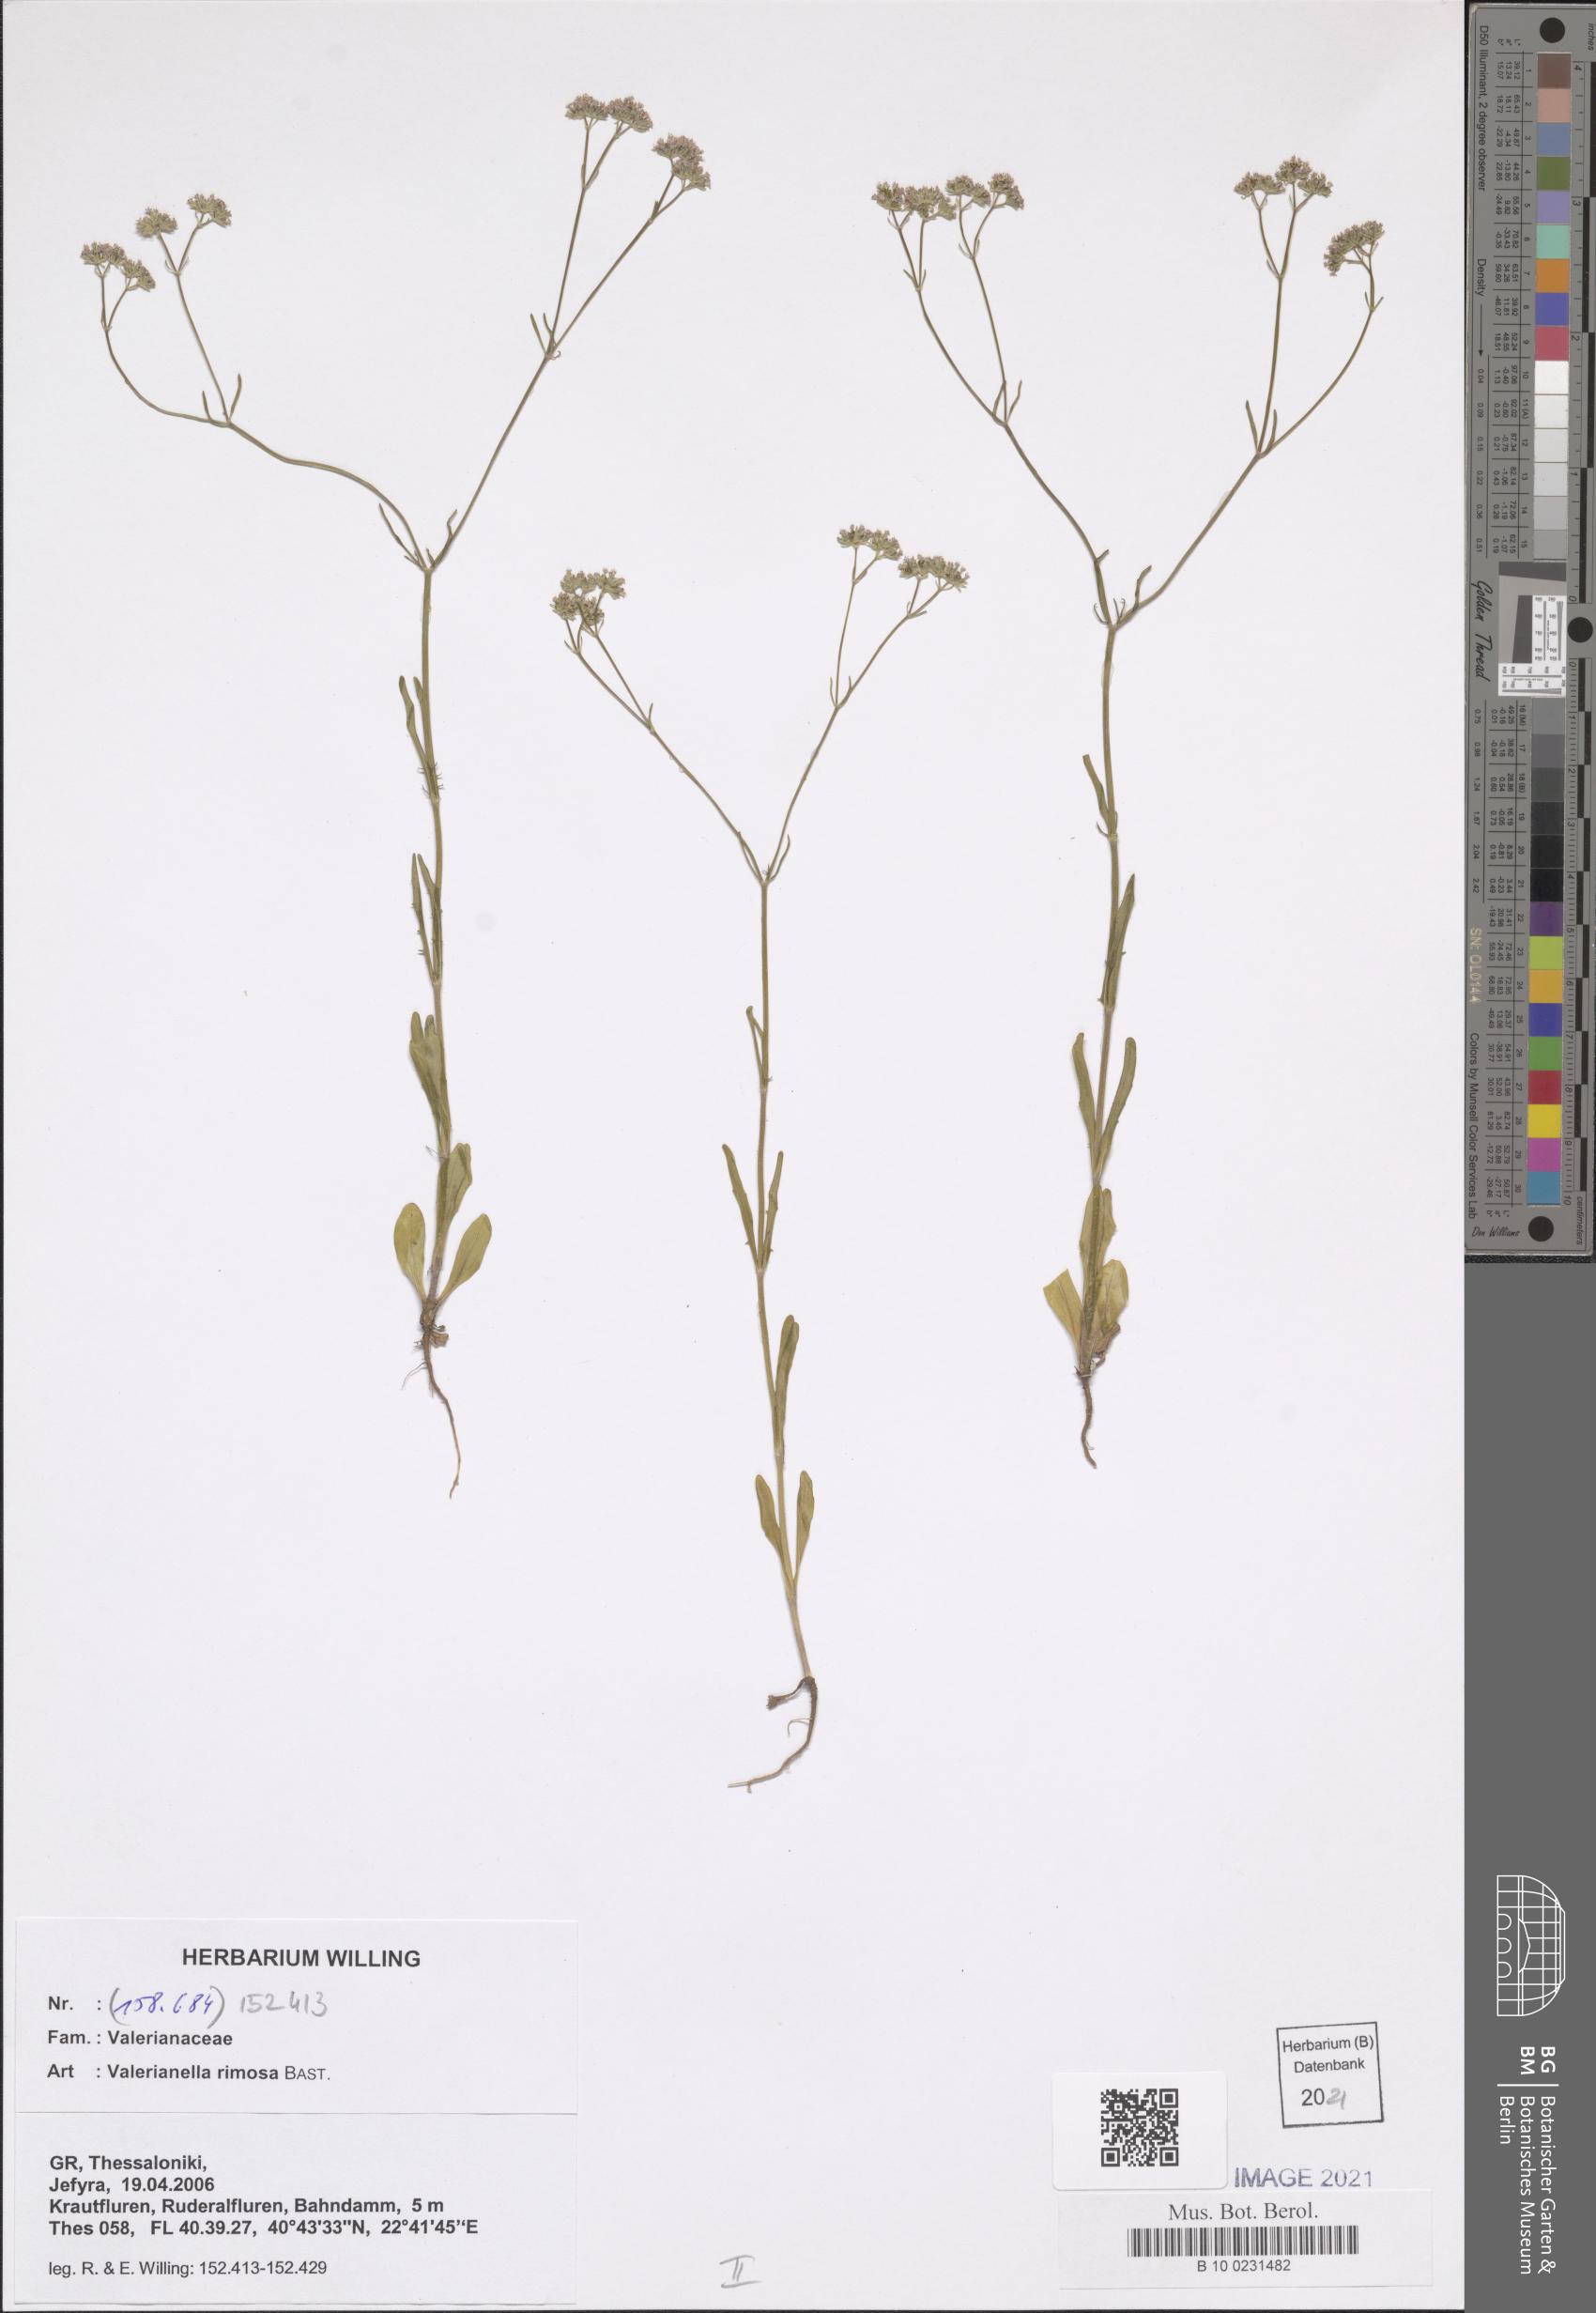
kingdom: Plantae
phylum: Tracheophyta
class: Magnoliopsida
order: Dipsacales
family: Caprifoliaceae
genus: Valerianella
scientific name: Valerianella rimosa
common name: Broad-fruited cornsalad
